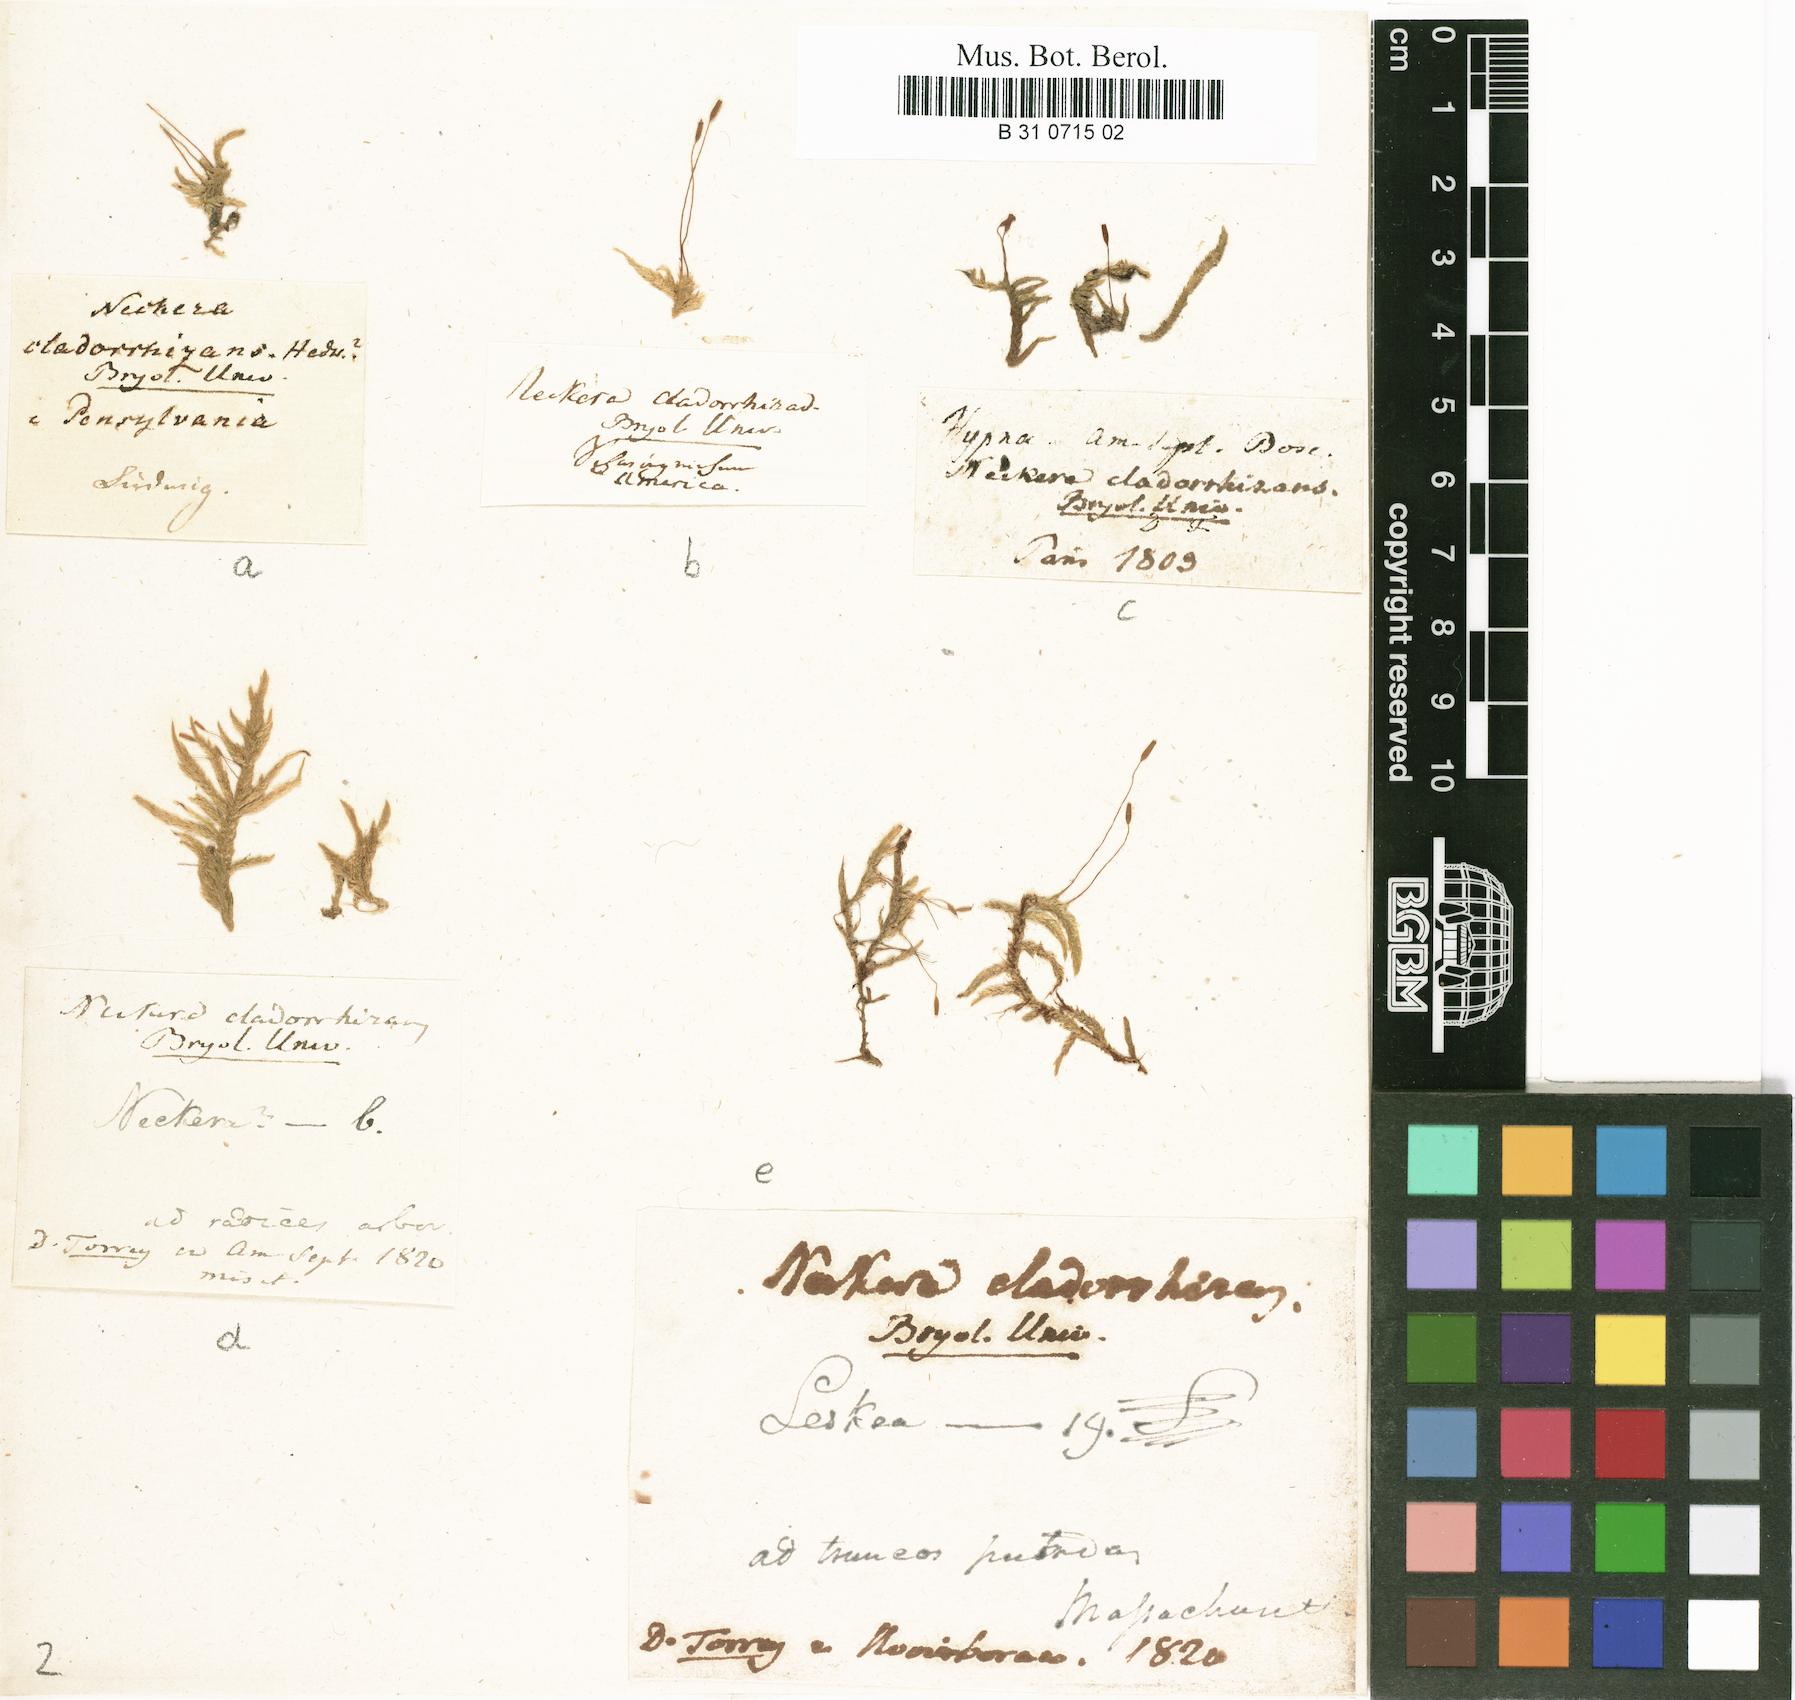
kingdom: Plantae
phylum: Bryophyta
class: Bryopsida
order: Hypnales
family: Entodontaceae
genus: Entodon
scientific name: Entodon cladorrhizans
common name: Flat-stemmed entodon moss
